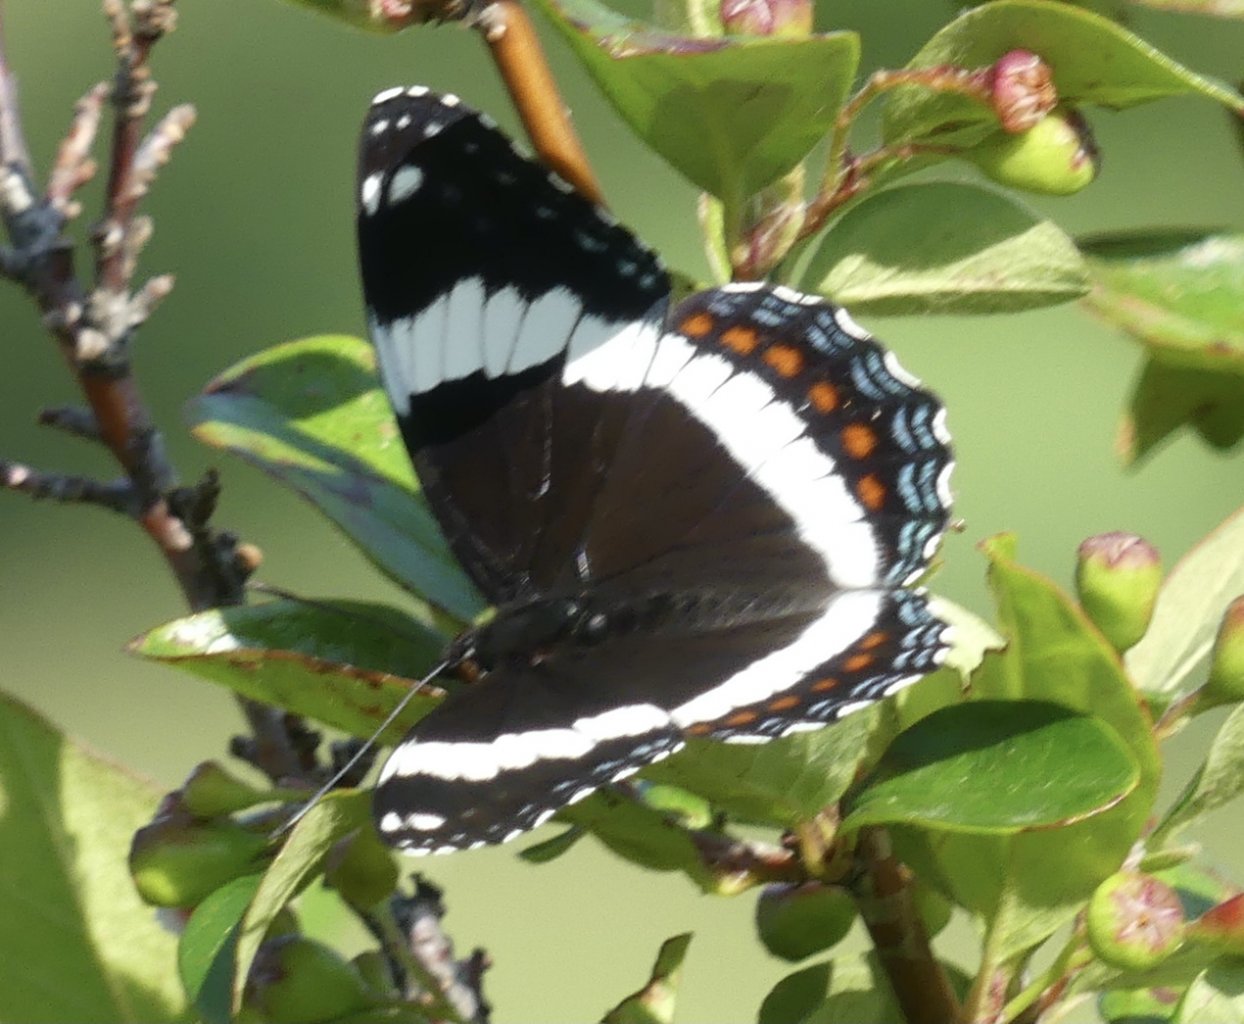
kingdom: Animalia
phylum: Arthropoda
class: Insecta
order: Lepidoptera
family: Nymphalidae
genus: Limenitis
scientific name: Limenitis arthemis
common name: Red-spotted Admiral
